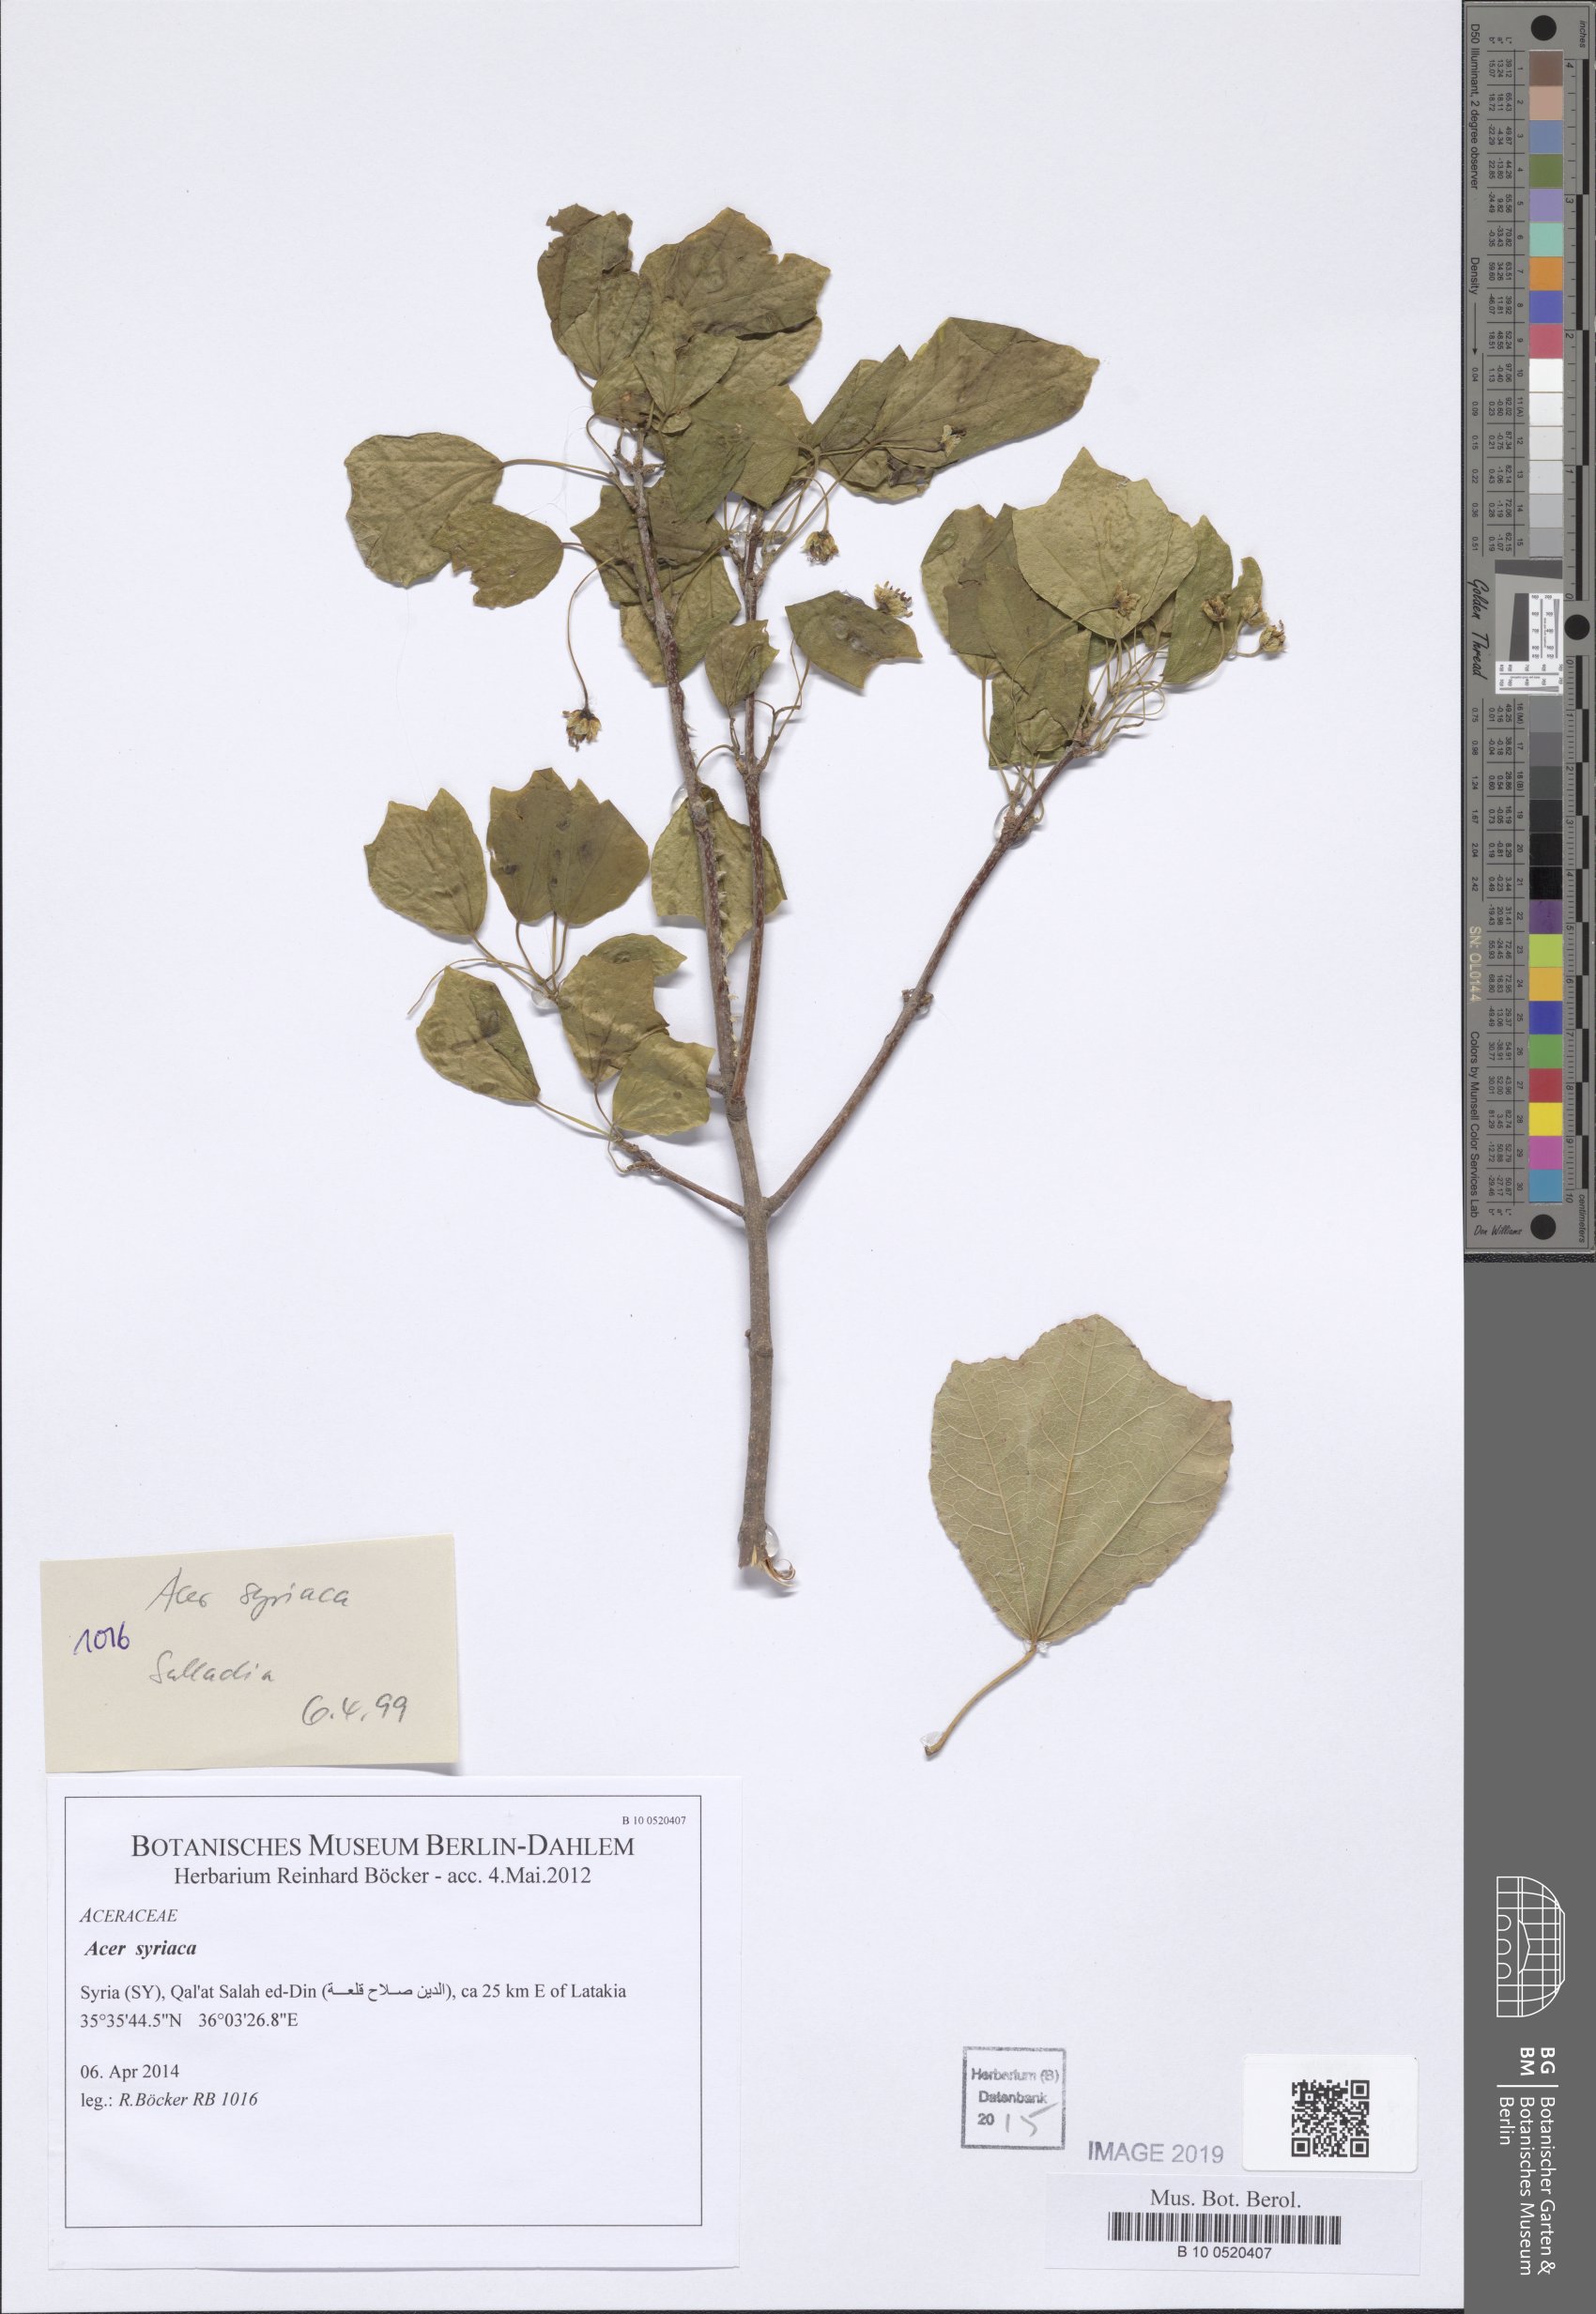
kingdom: Plantae
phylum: Tracheophyta
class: Magnoliopsida
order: Sapindales
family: Sapindaceae
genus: Acer
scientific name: Acer obtusifolium
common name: Cyprus maple
